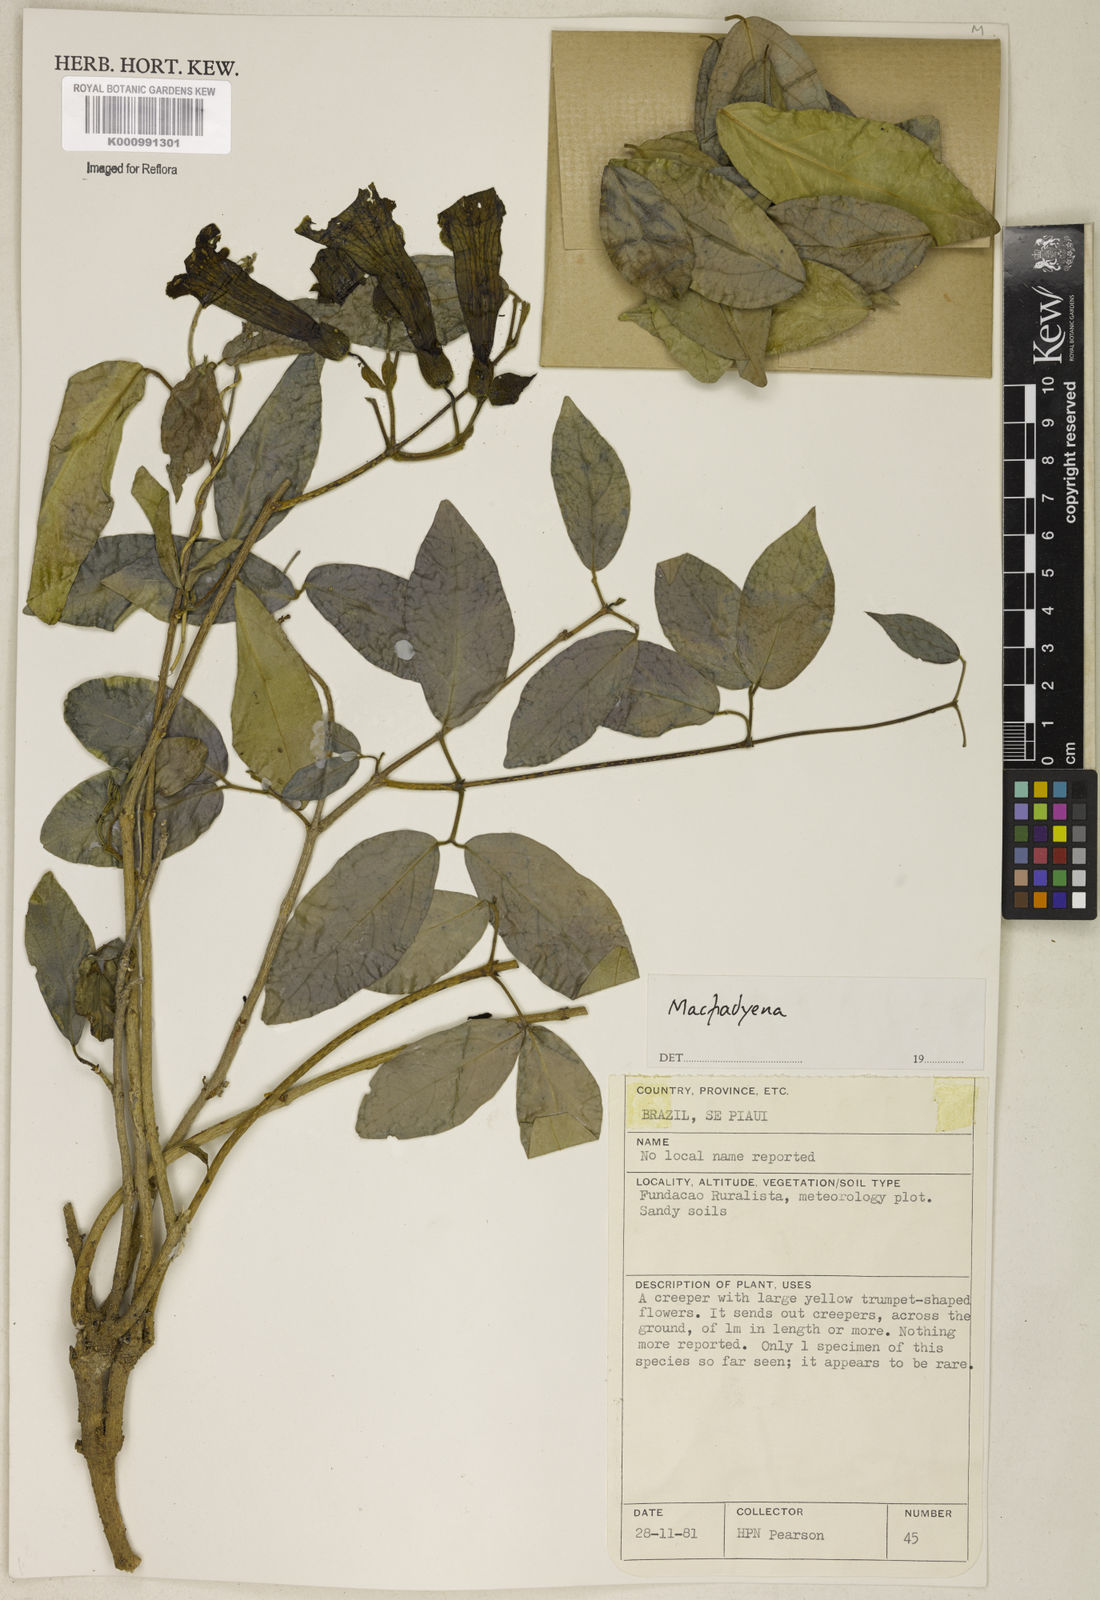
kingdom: Animalia
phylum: Chordata
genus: Macfadyena
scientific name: Macfadyena
